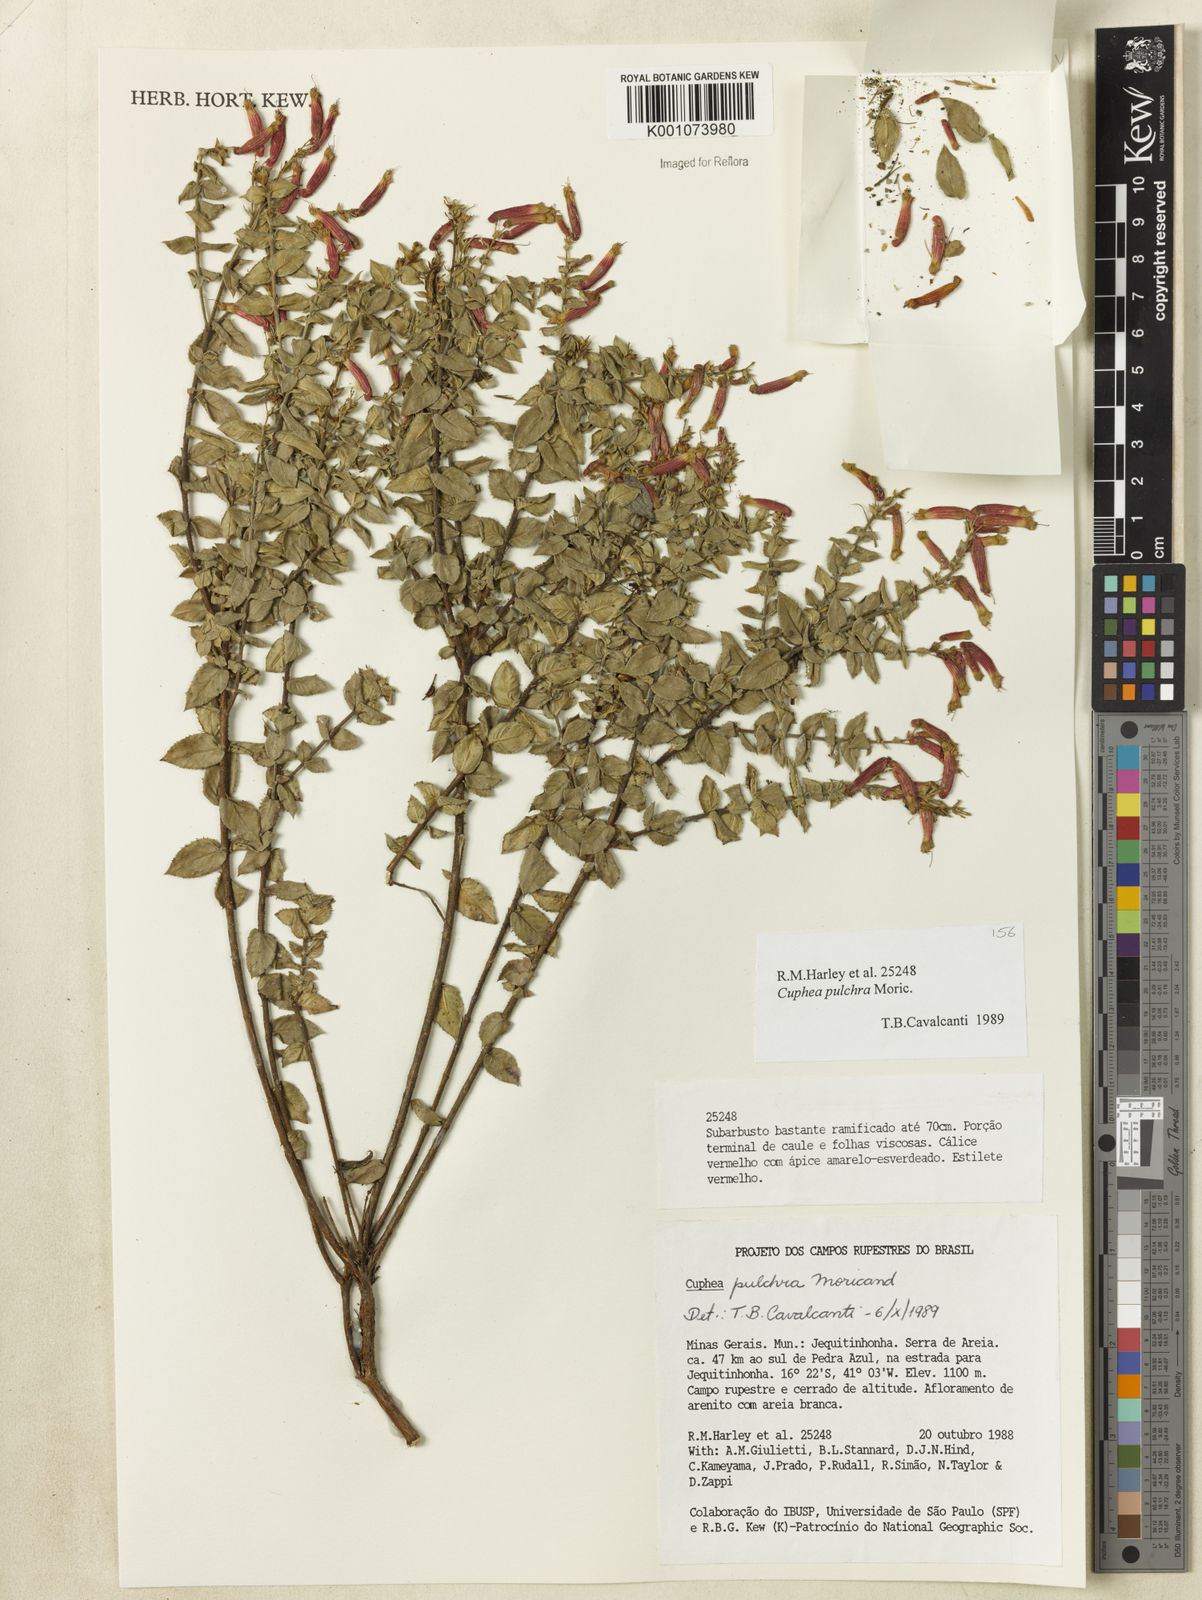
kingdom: Plantae
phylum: Tracheophyta
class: Magnoliopsida
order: Myrtales
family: Lythraceae
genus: Cuphea
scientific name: Cuphea pulchra
